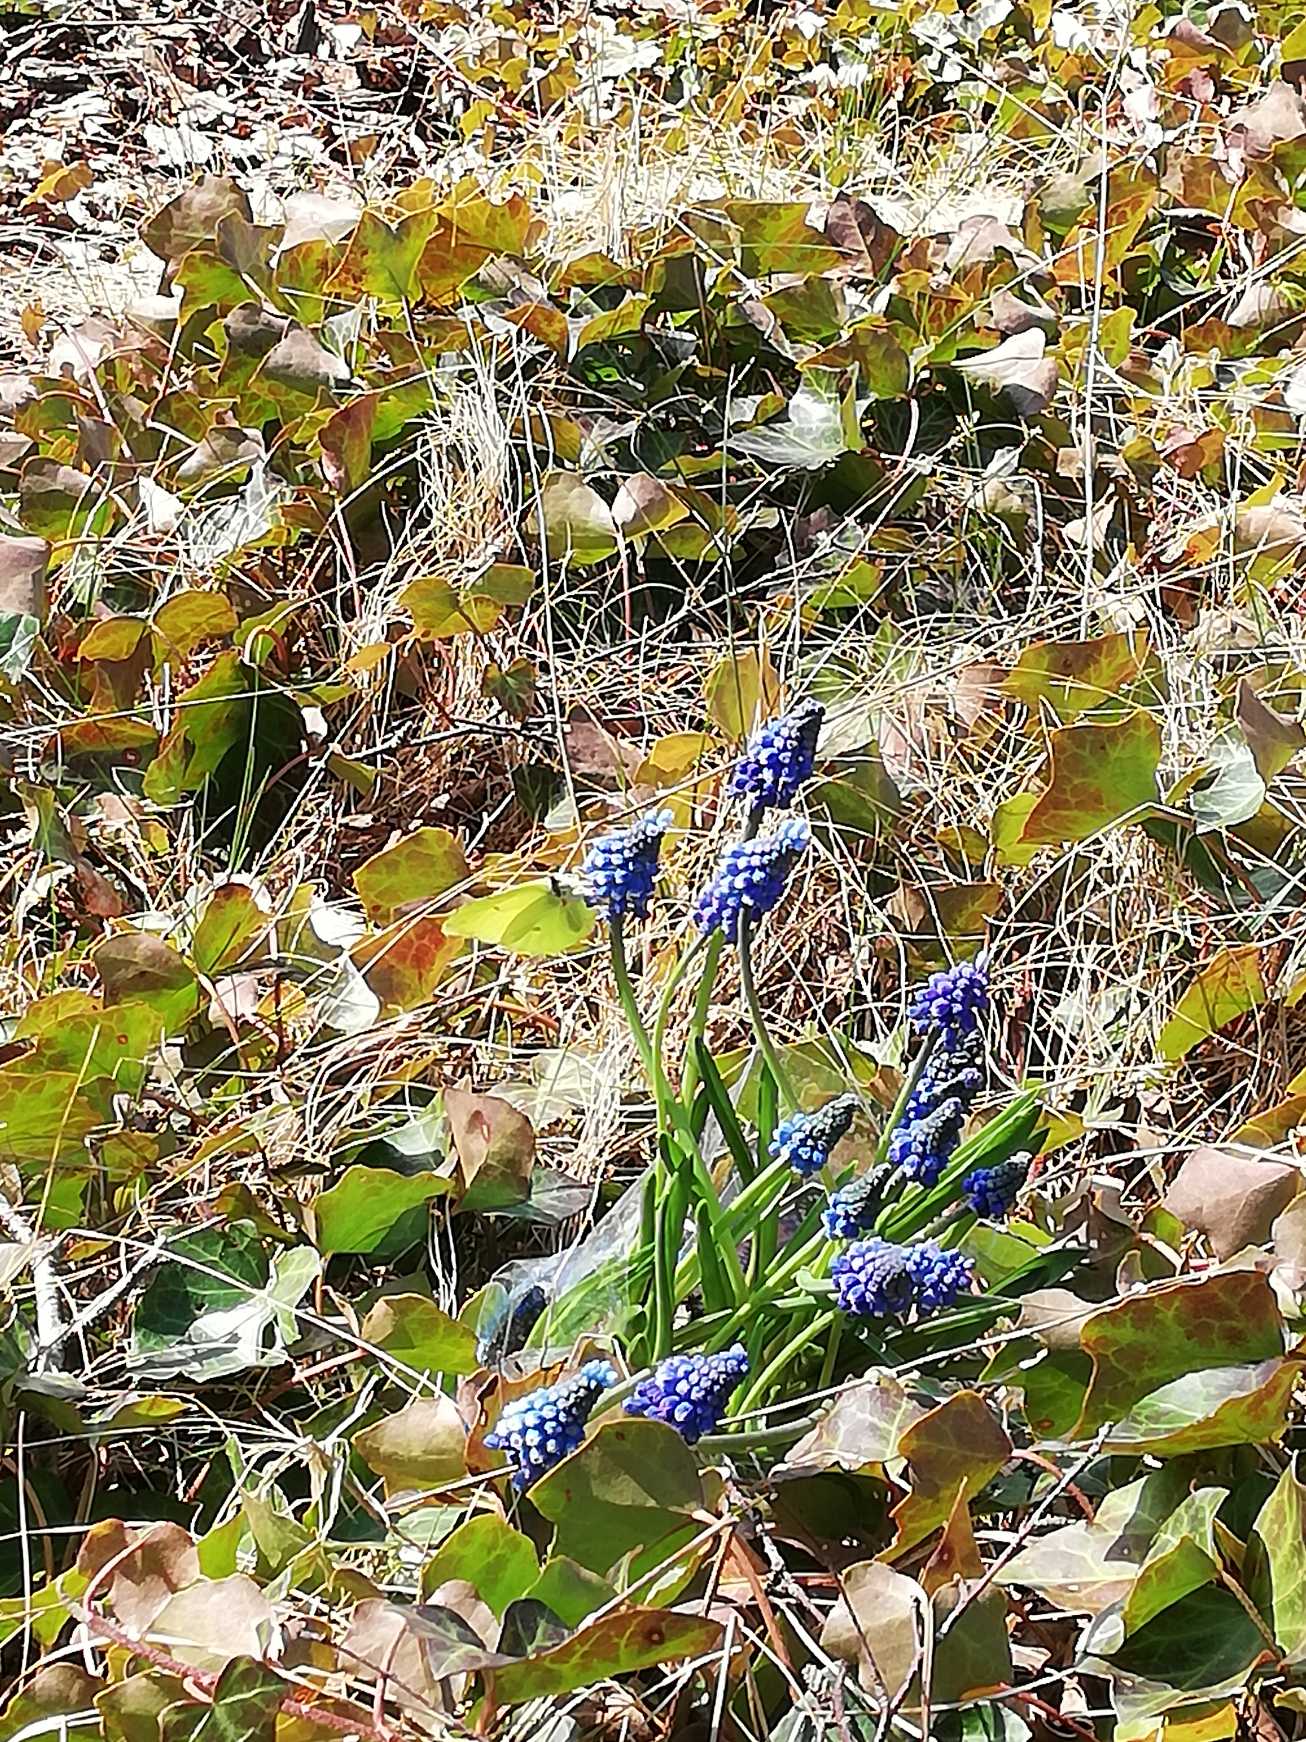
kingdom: Animalia
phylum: Arthropoda
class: Insecta
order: Lepidoptera
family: Pieridae
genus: Gonepteryx
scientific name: Gonepteryx rhamni
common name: Citronsommerfugl
